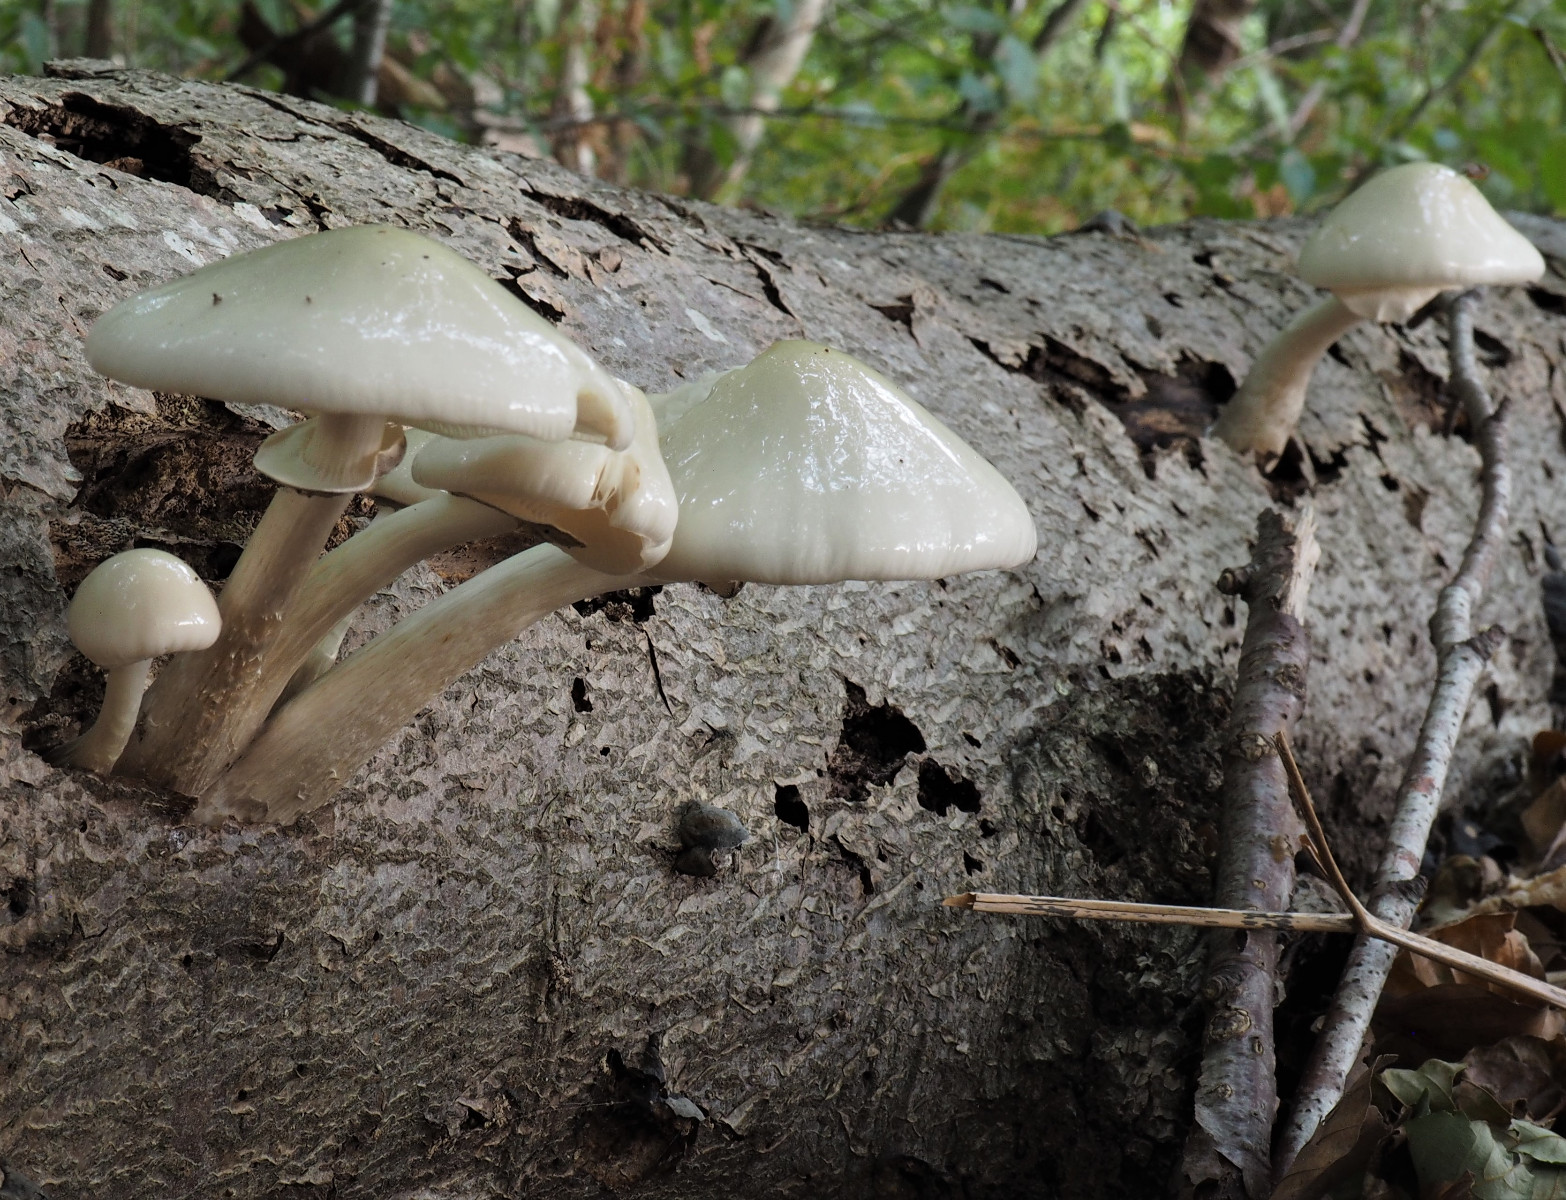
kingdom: Fungi
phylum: Basidiomycota
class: Agaricomycetes
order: Agaricales
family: Physalacriaceae
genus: Mucidula
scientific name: Mucidula mucida
